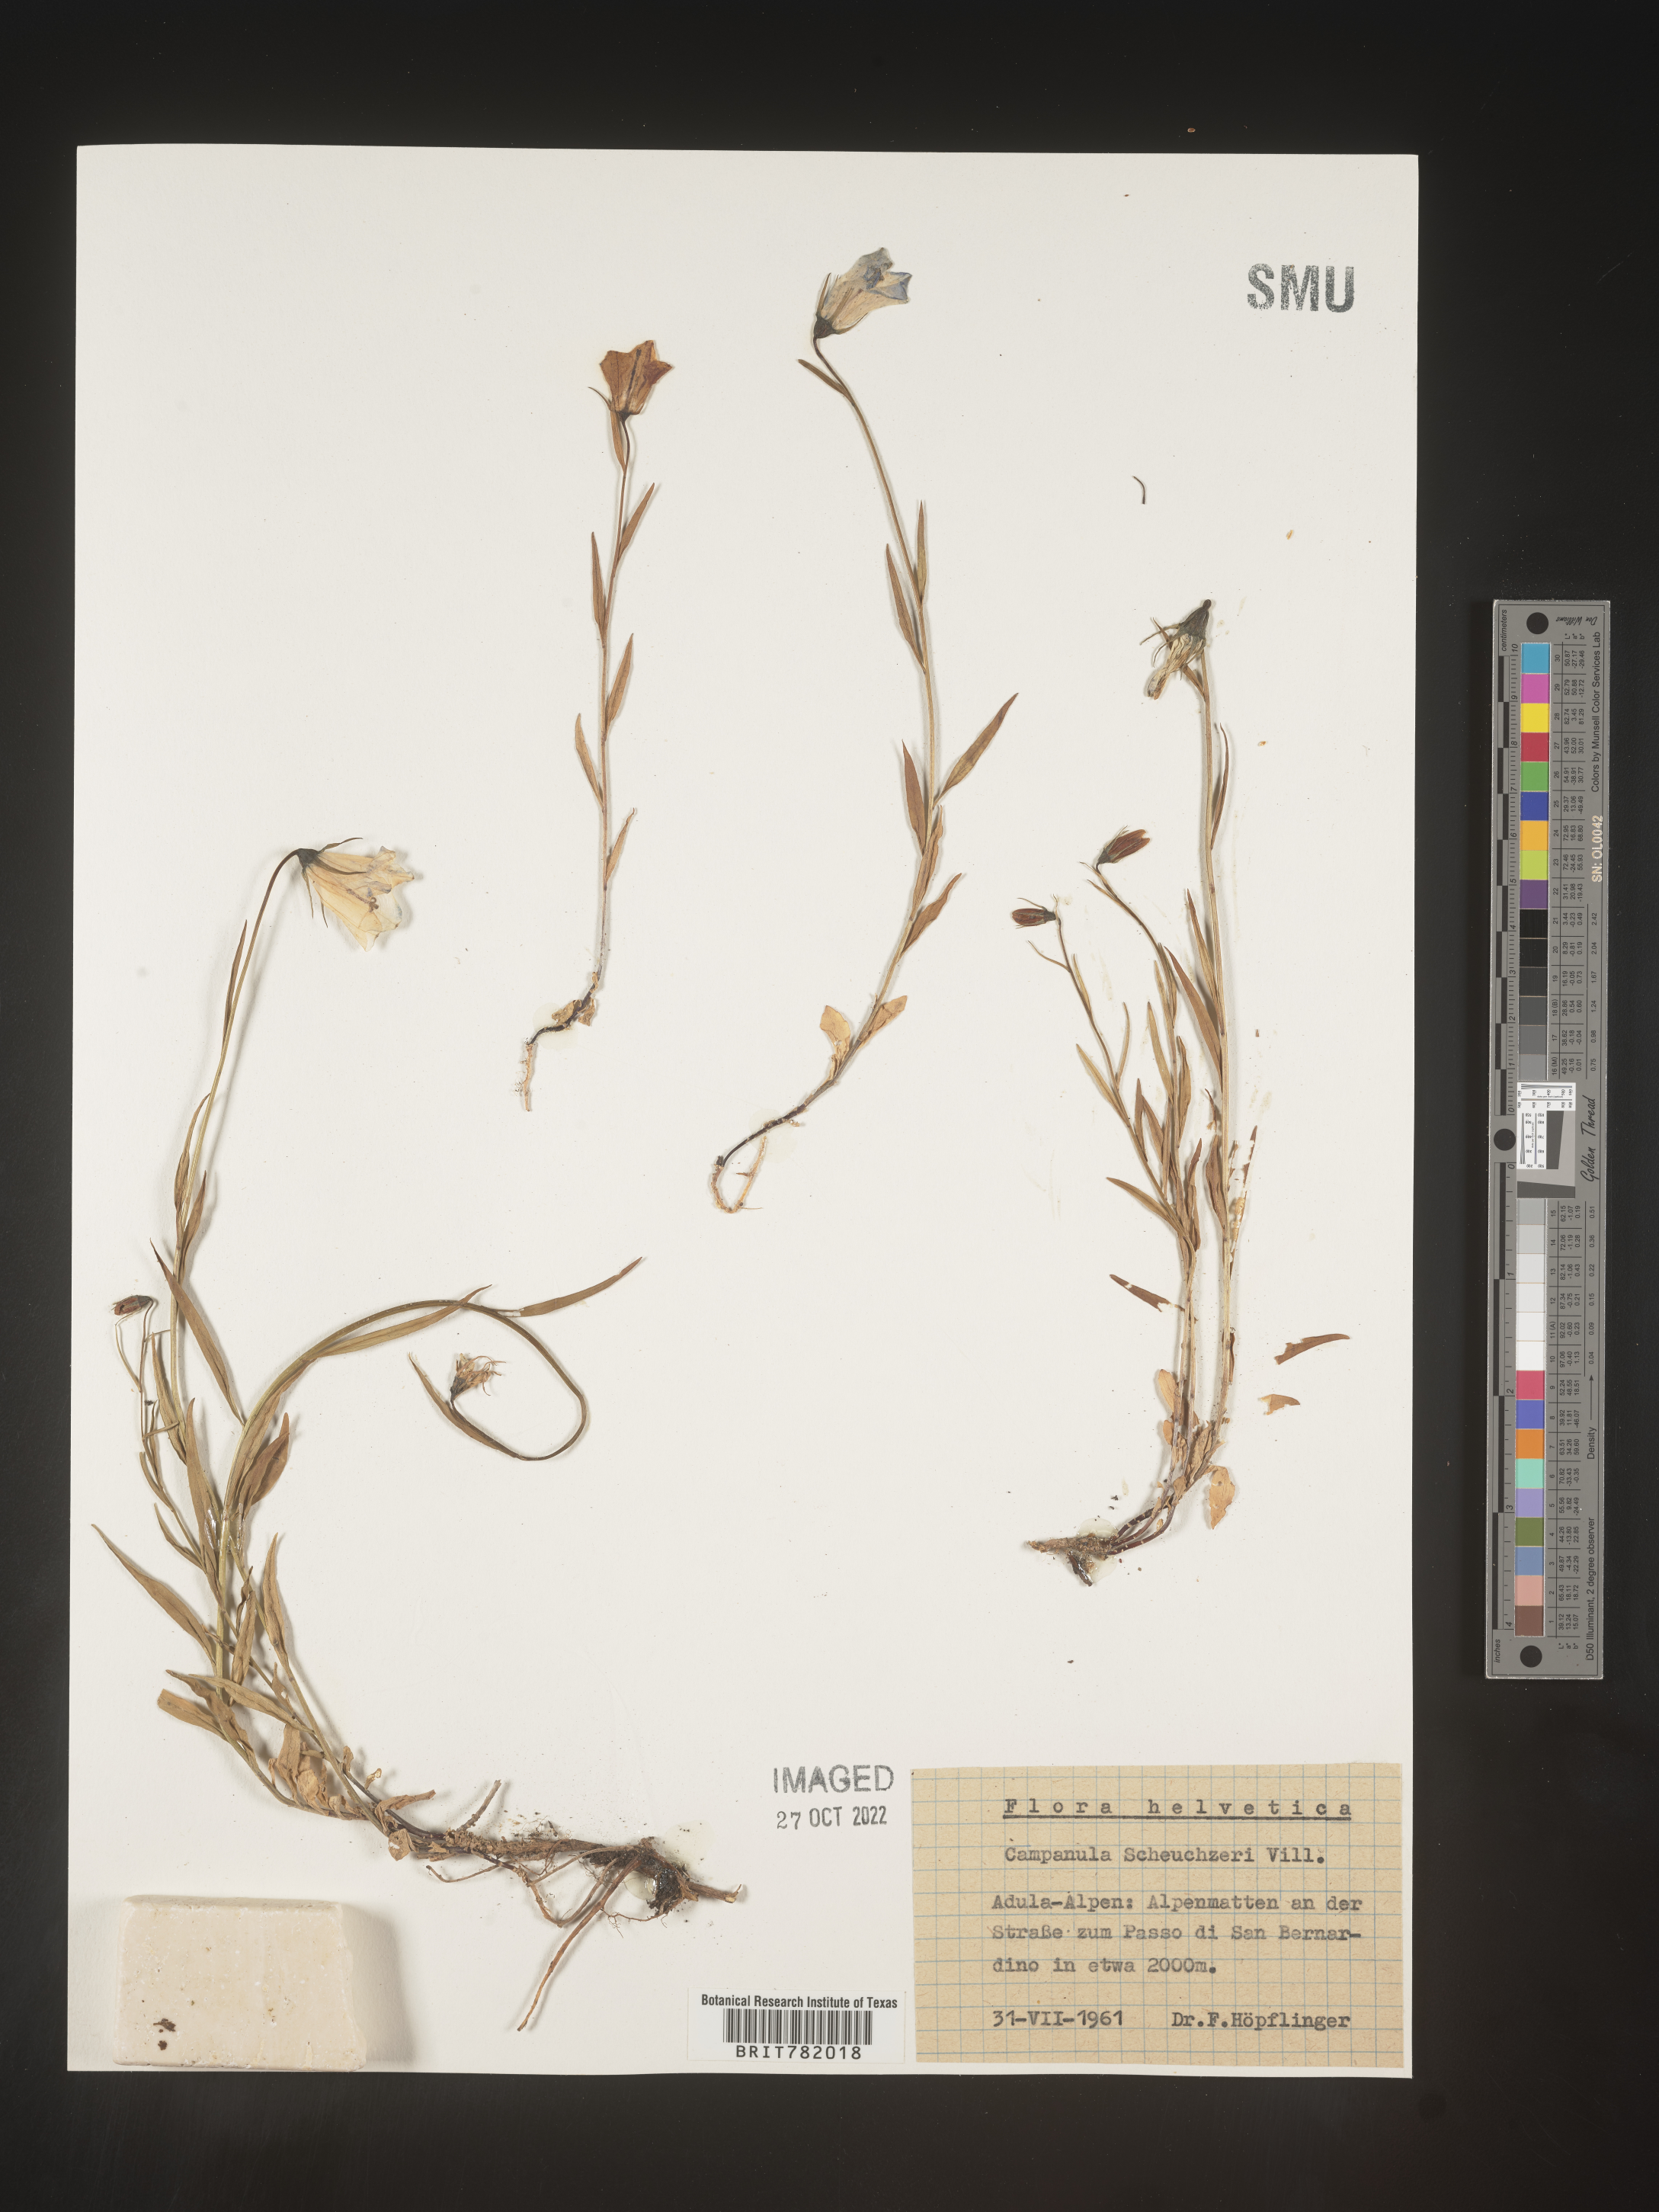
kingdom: Plantae
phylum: Tracheophyta
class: Magnoliopsida
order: Asterales
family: Campanulaceae
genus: Campanula
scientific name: Campanula
